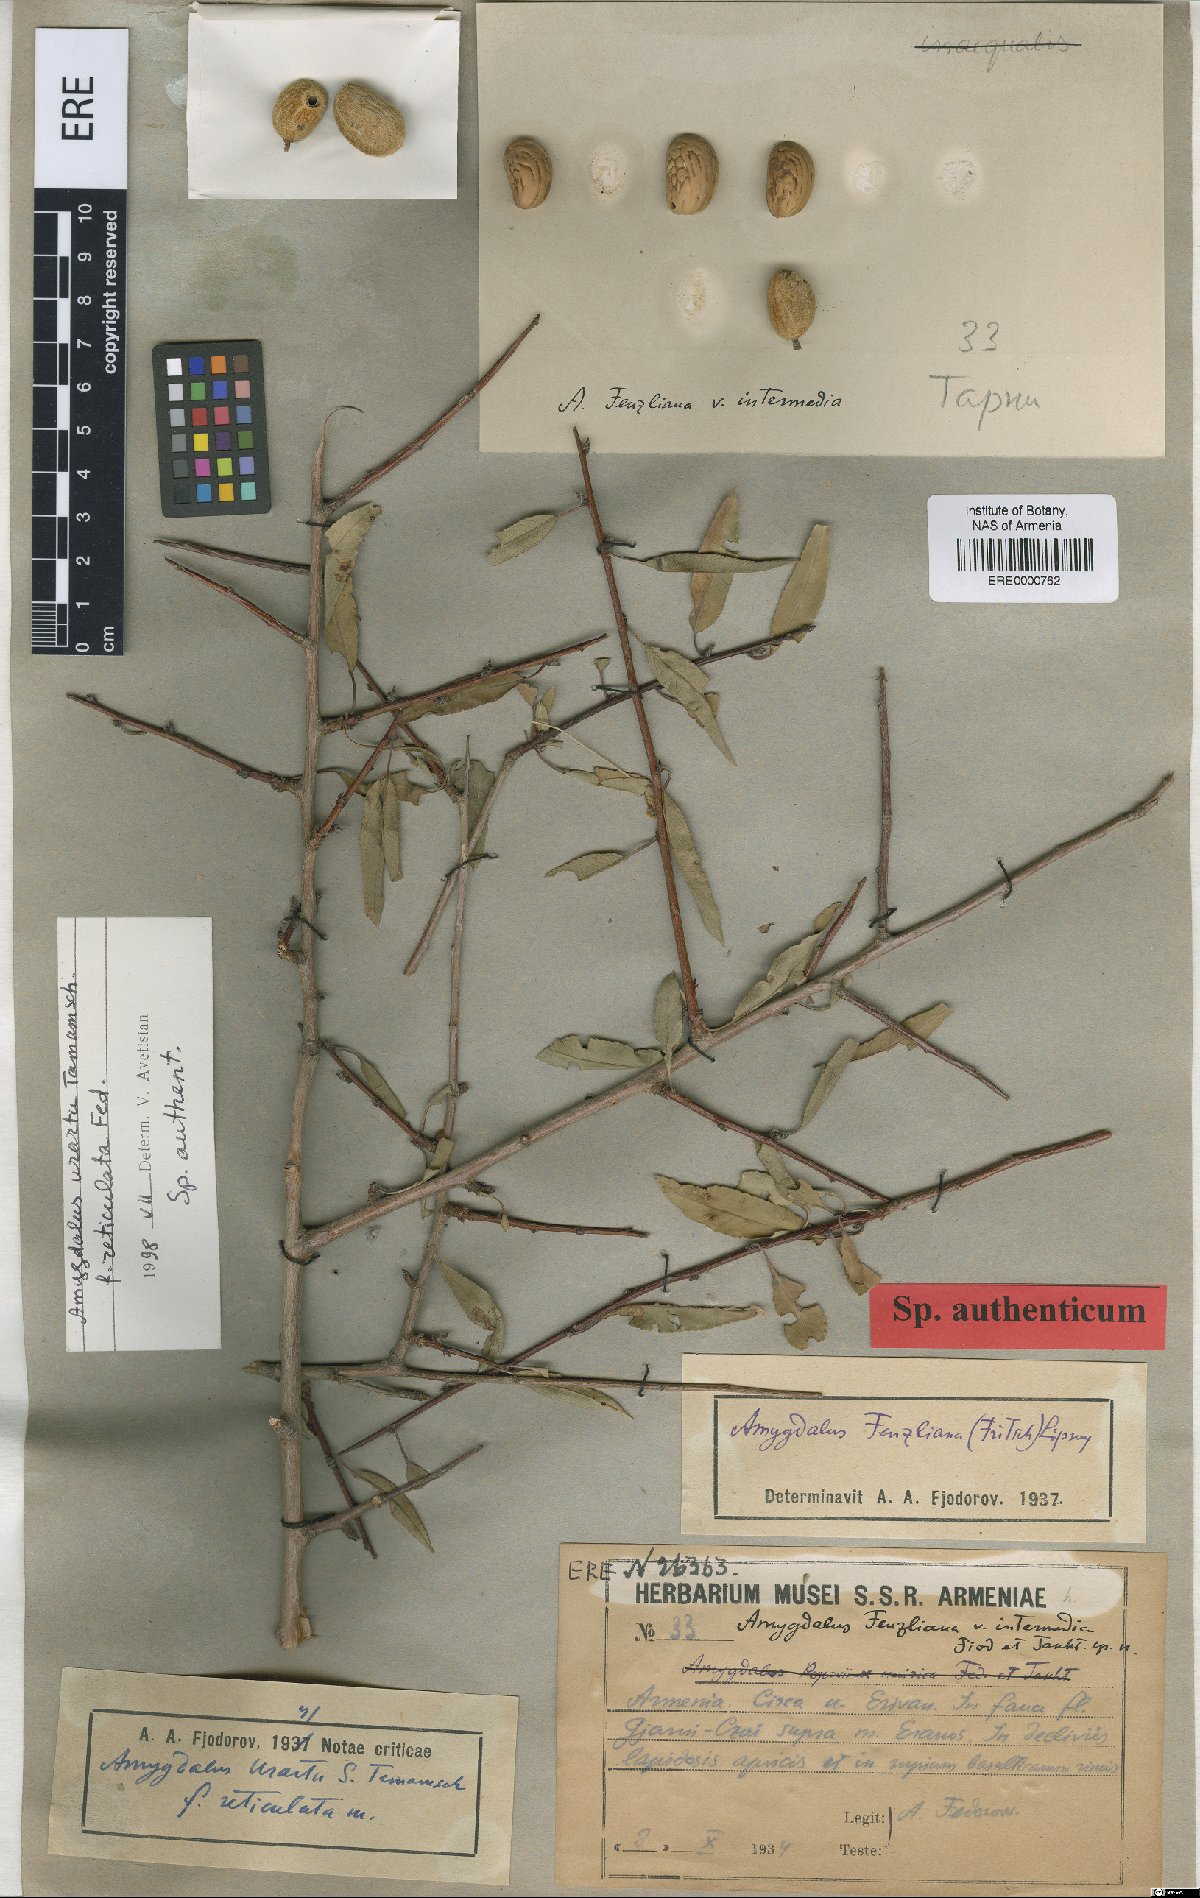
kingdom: Plantae
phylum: Tracheophyta
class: Magnoliopsida
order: Rosales
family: Rosaceae
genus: Prunus
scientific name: Prunus urartu
